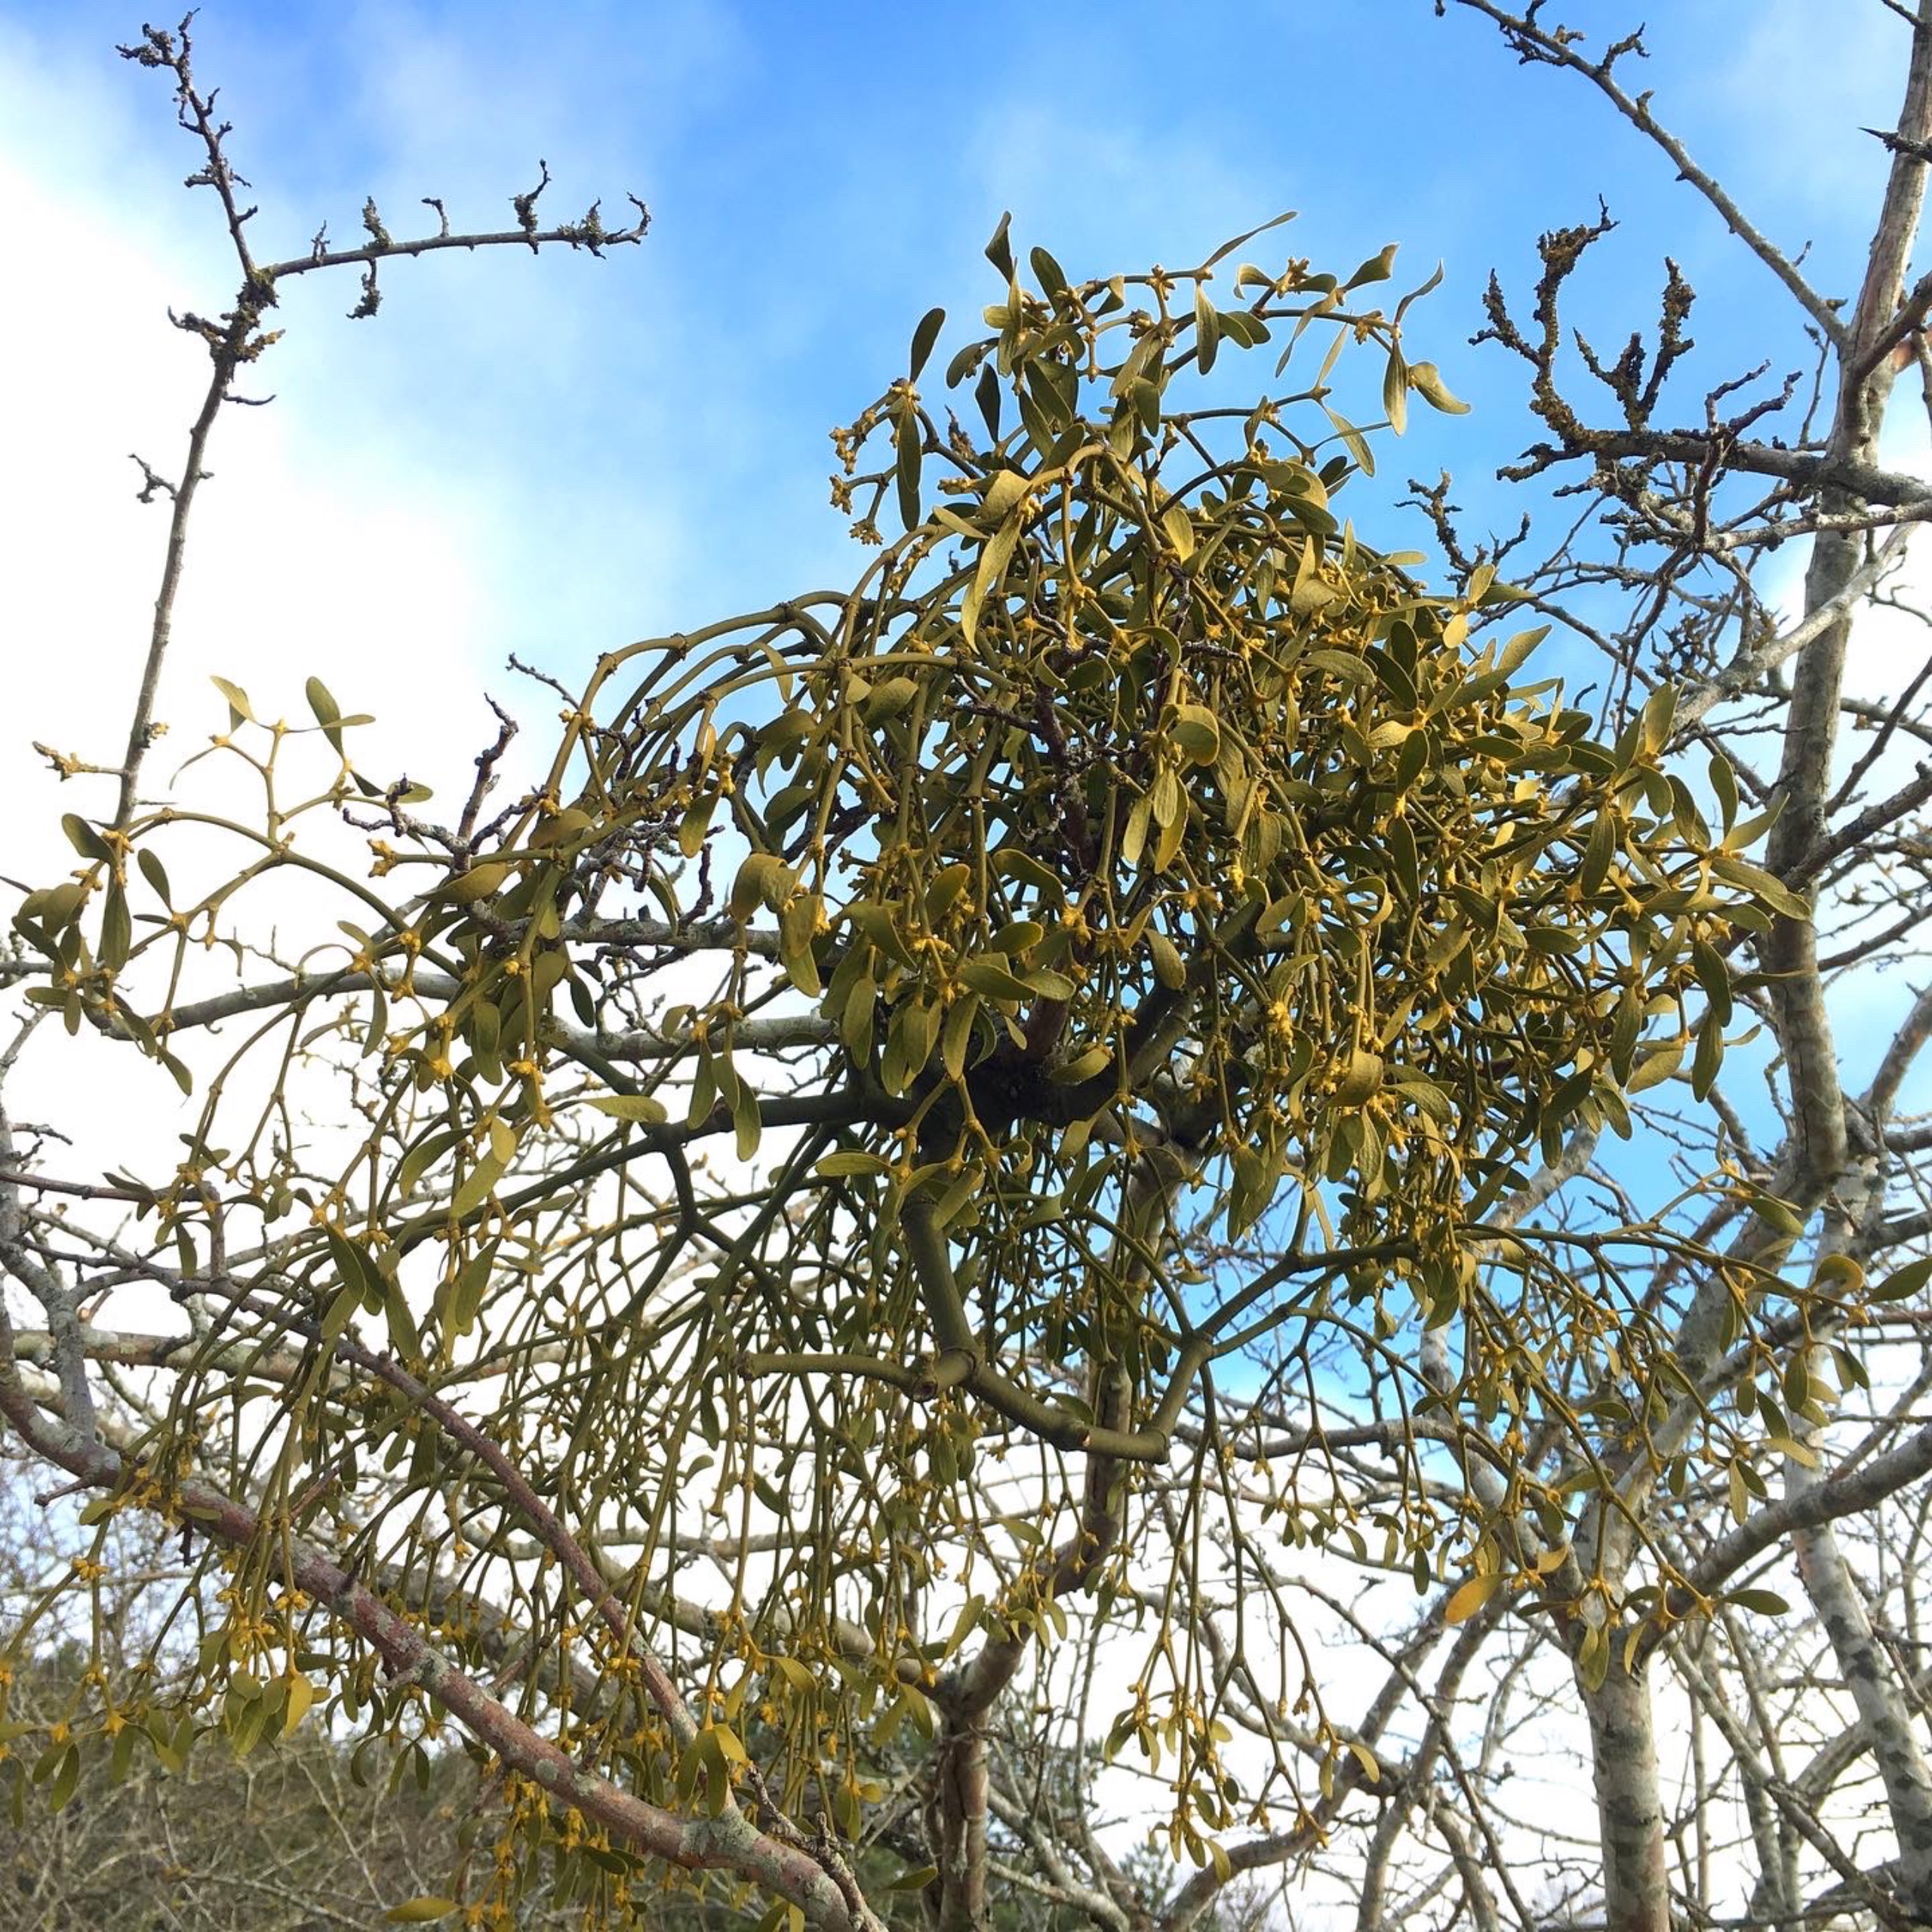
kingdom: Plantae
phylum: Tracheophyta
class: Magnoliopsida
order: Santalales
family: Viscaceae
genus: Viscum
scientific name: Viscum album
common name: Mistelten
